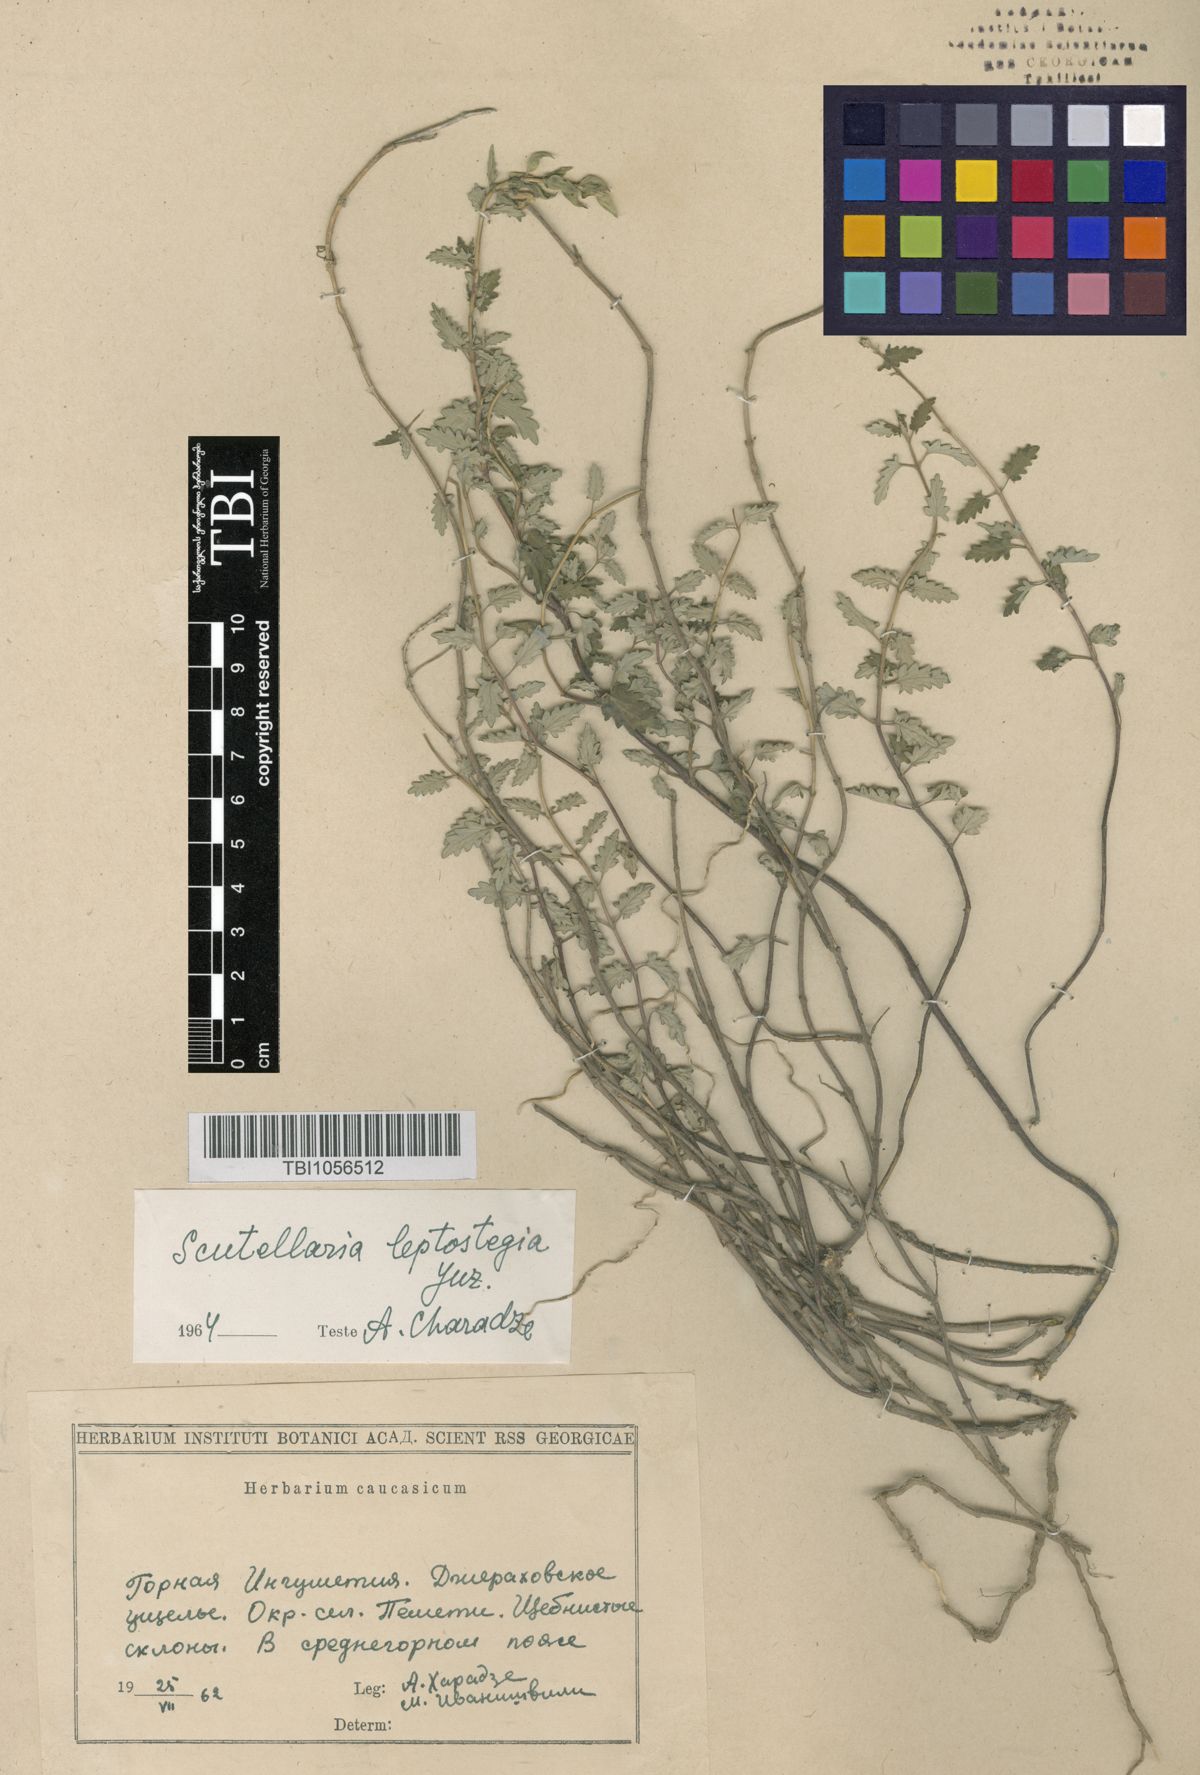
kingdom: Plantae
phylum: Tracheophyta
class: Magnoliopsida
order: Lamiales
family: Lamiaceae
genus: Scutellaria
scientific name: Scutellaria leptostegia
